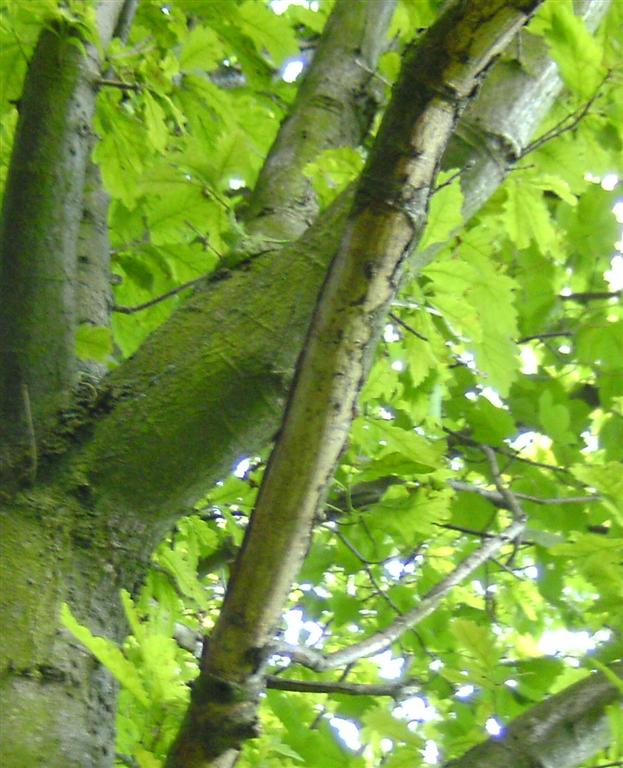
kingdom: Fungi
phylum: Basidiomycota
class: Agaricomycetes
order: Corticiales
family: Vuilleminiaceae
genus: Vuilleminia
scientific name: Vuilleminia comedens
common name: almindelig barksprænger
